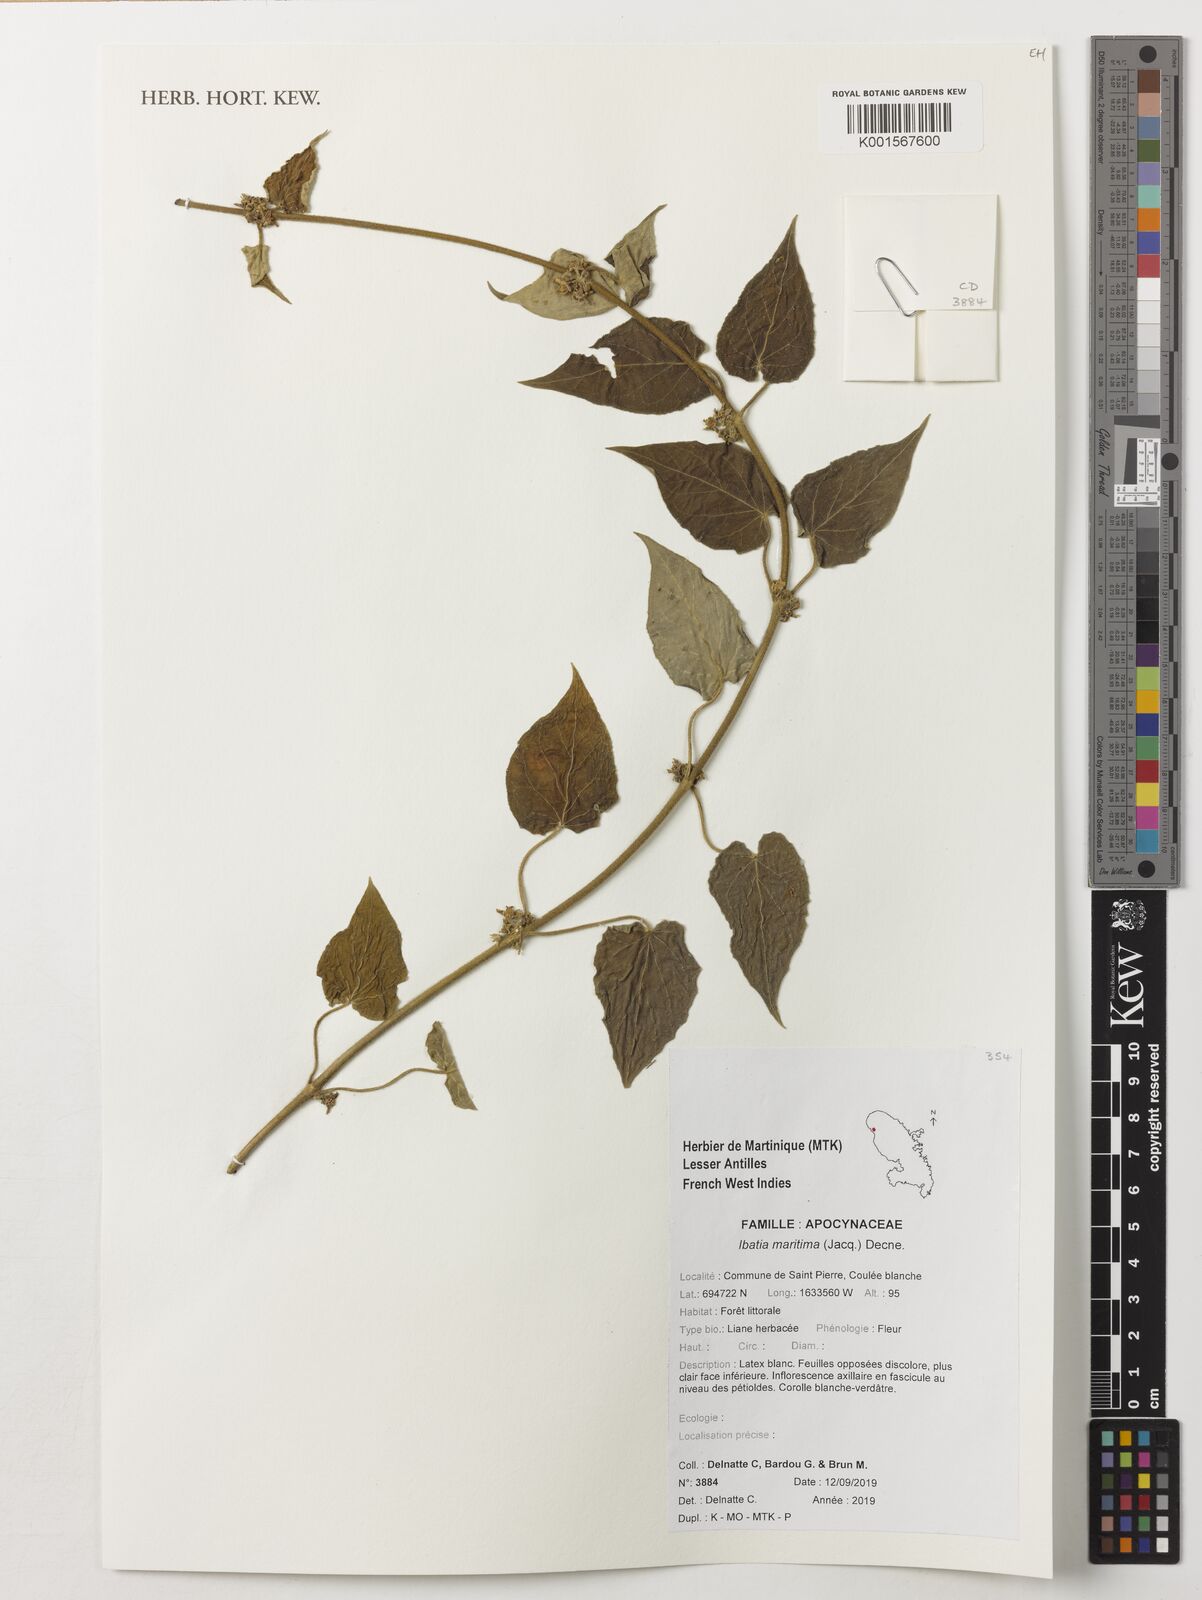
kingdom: Plantae
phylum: Tracheophyta
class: Magnoliopsida
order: Gentianales
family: Apocynaceae
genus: Ibatia
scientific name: Ibatia maritima
